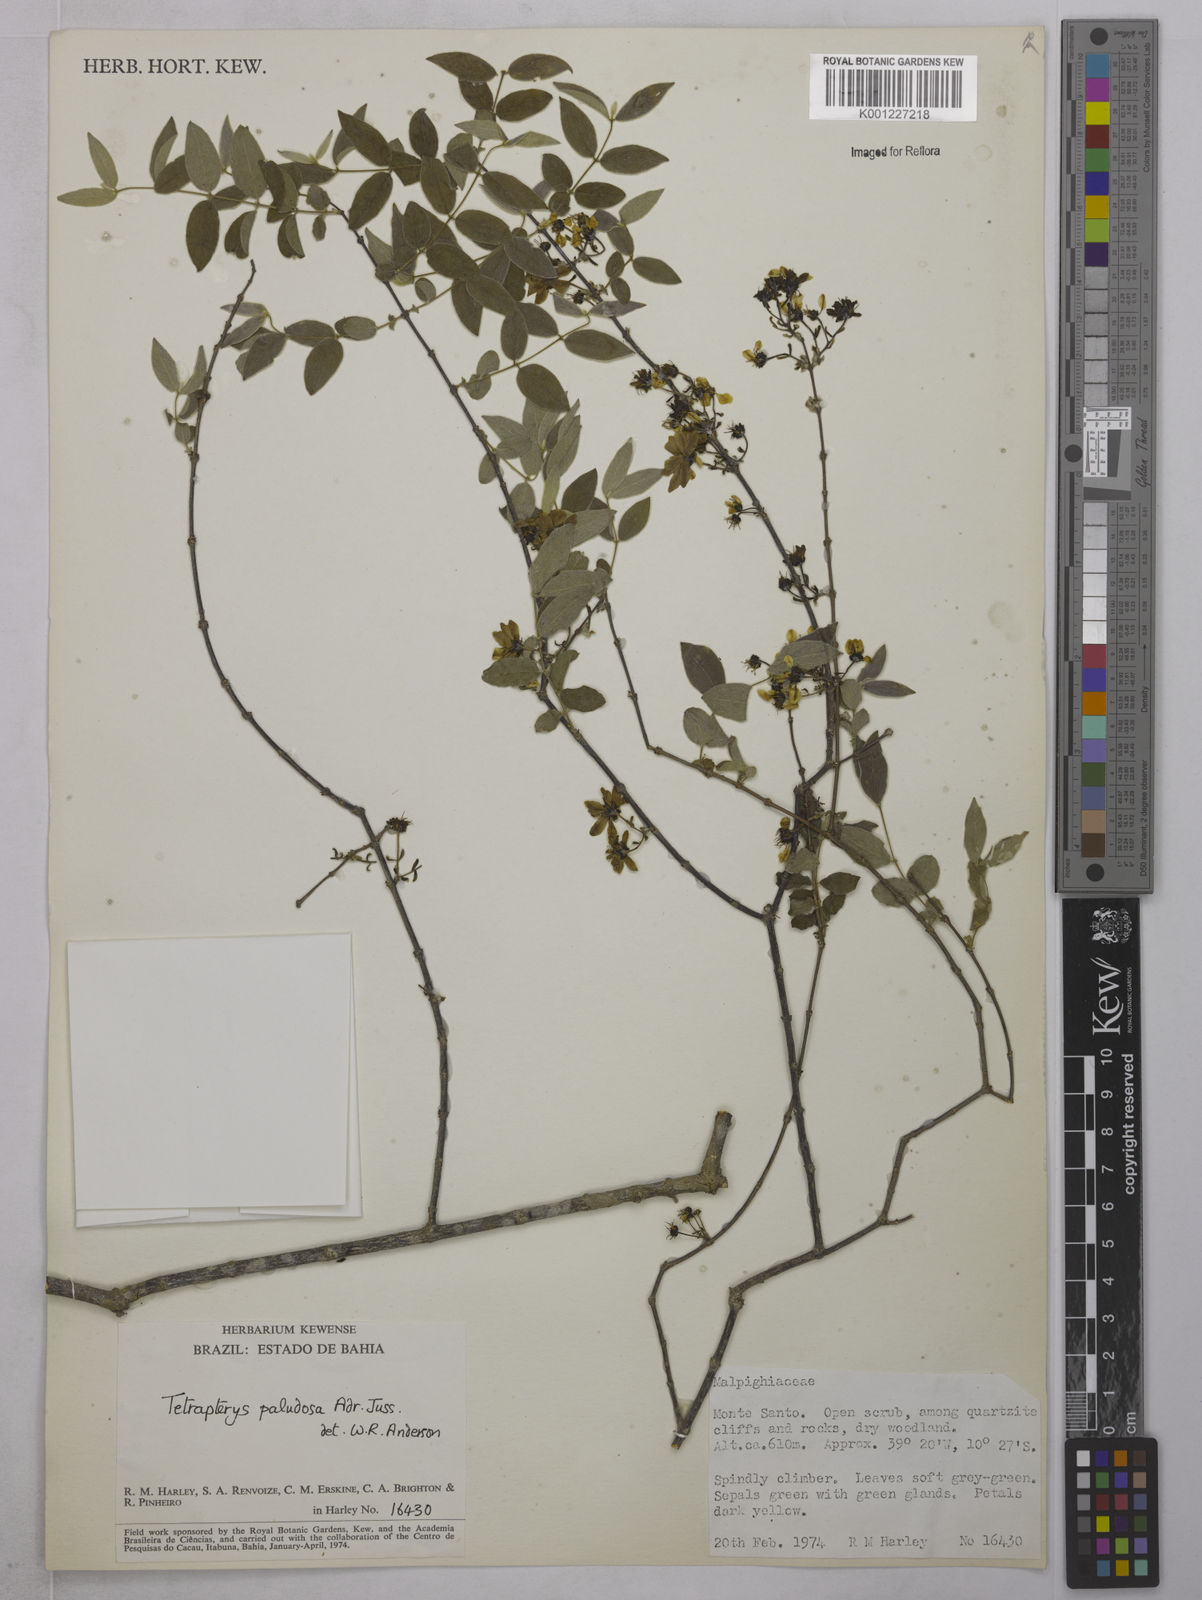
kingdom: Plantae
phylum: Tracheophyta
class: Magnoliopsida
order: Malpighiales
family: Malpighiaceae
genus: Glicophyllum
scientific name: Glicophyllum paludosum
